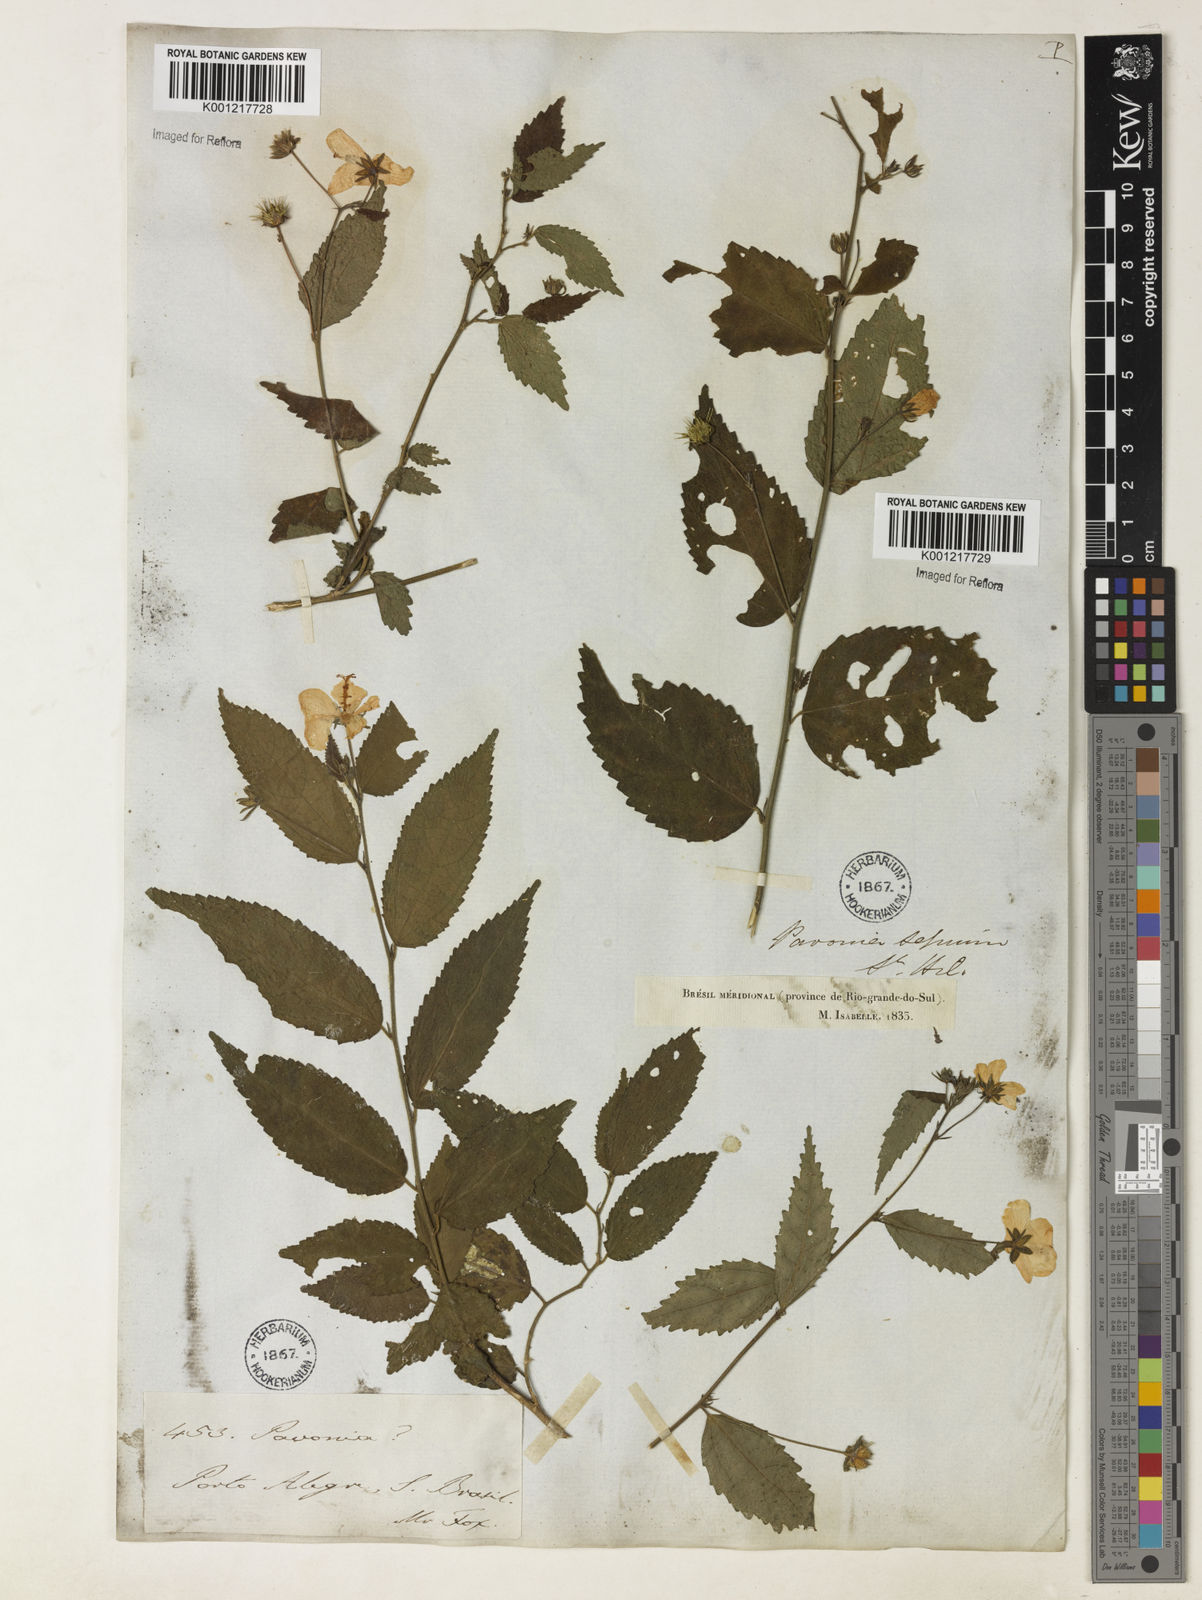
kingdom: Plantae
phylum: Tracheophyta
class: Magnoliopsida
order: Malvales
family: Malvaceae
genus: Pavonia
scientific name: Pavonia sepium
